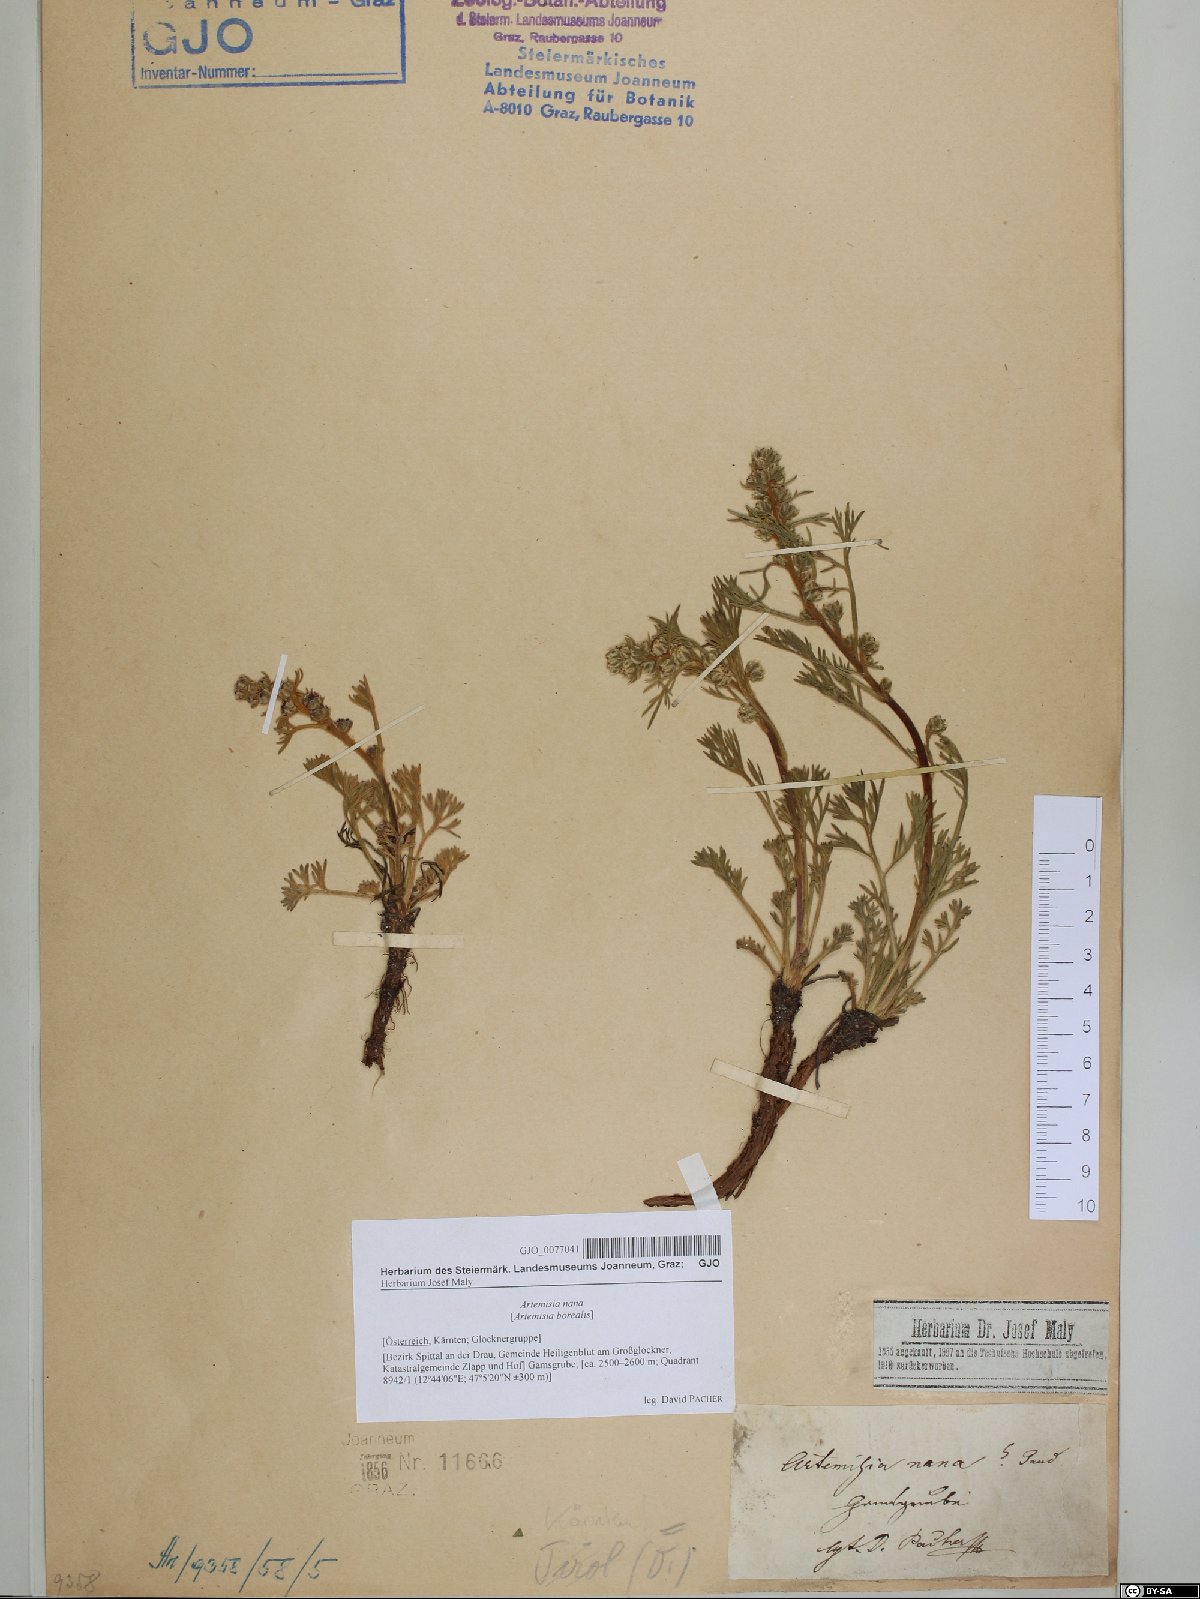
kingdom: Plantae
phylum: Tracheophyta
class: Magnoliopsida
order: Asterales
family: Asteraceae
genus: Artemisia
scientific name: Artemisia borealis
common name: Boreal sage
